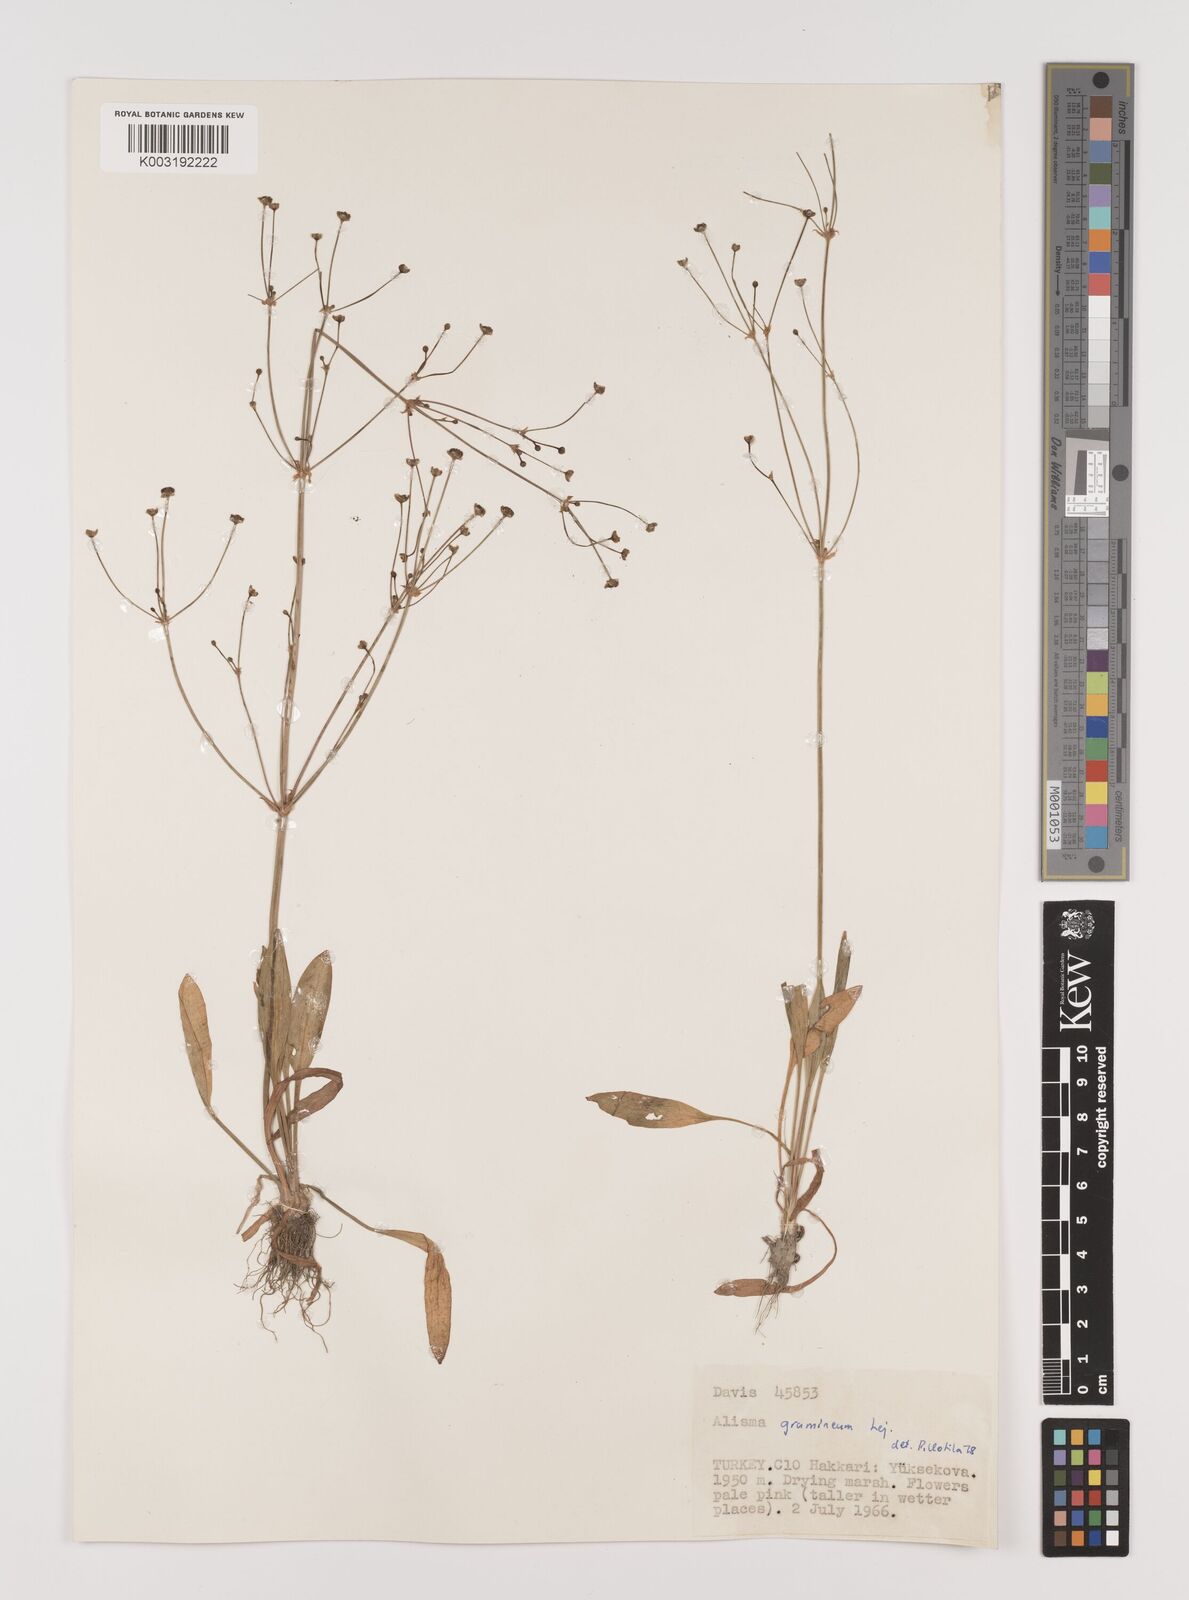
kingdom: Plantae
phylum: Tracheophyta
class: Liliopsida
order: Alismatales
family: Alismataceae
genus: Alisma
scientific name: Alisma gramineum
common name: Ribbon-leaved water-plantain
